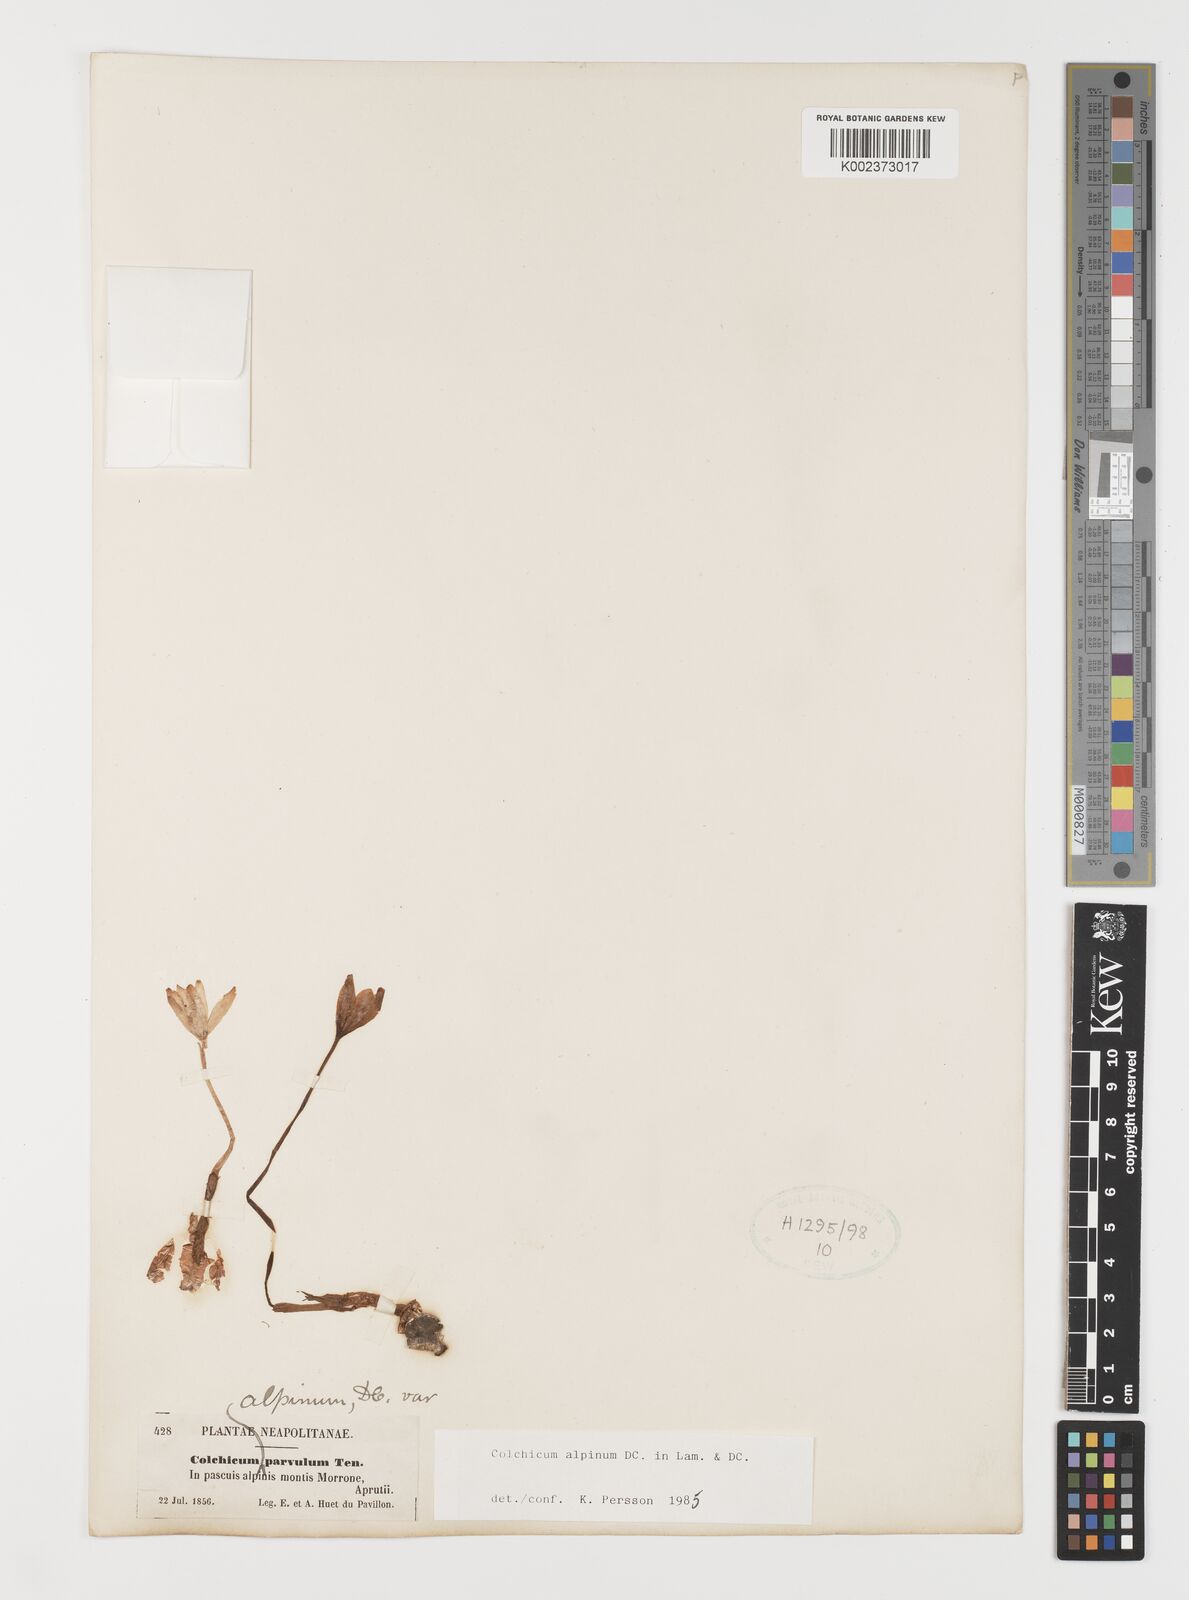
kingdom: Plantae
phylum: Tracheophyta
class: Liliopsida
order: Liliales
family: Colchicaceae
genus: Colchicum
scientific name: Colchicum alpinum
